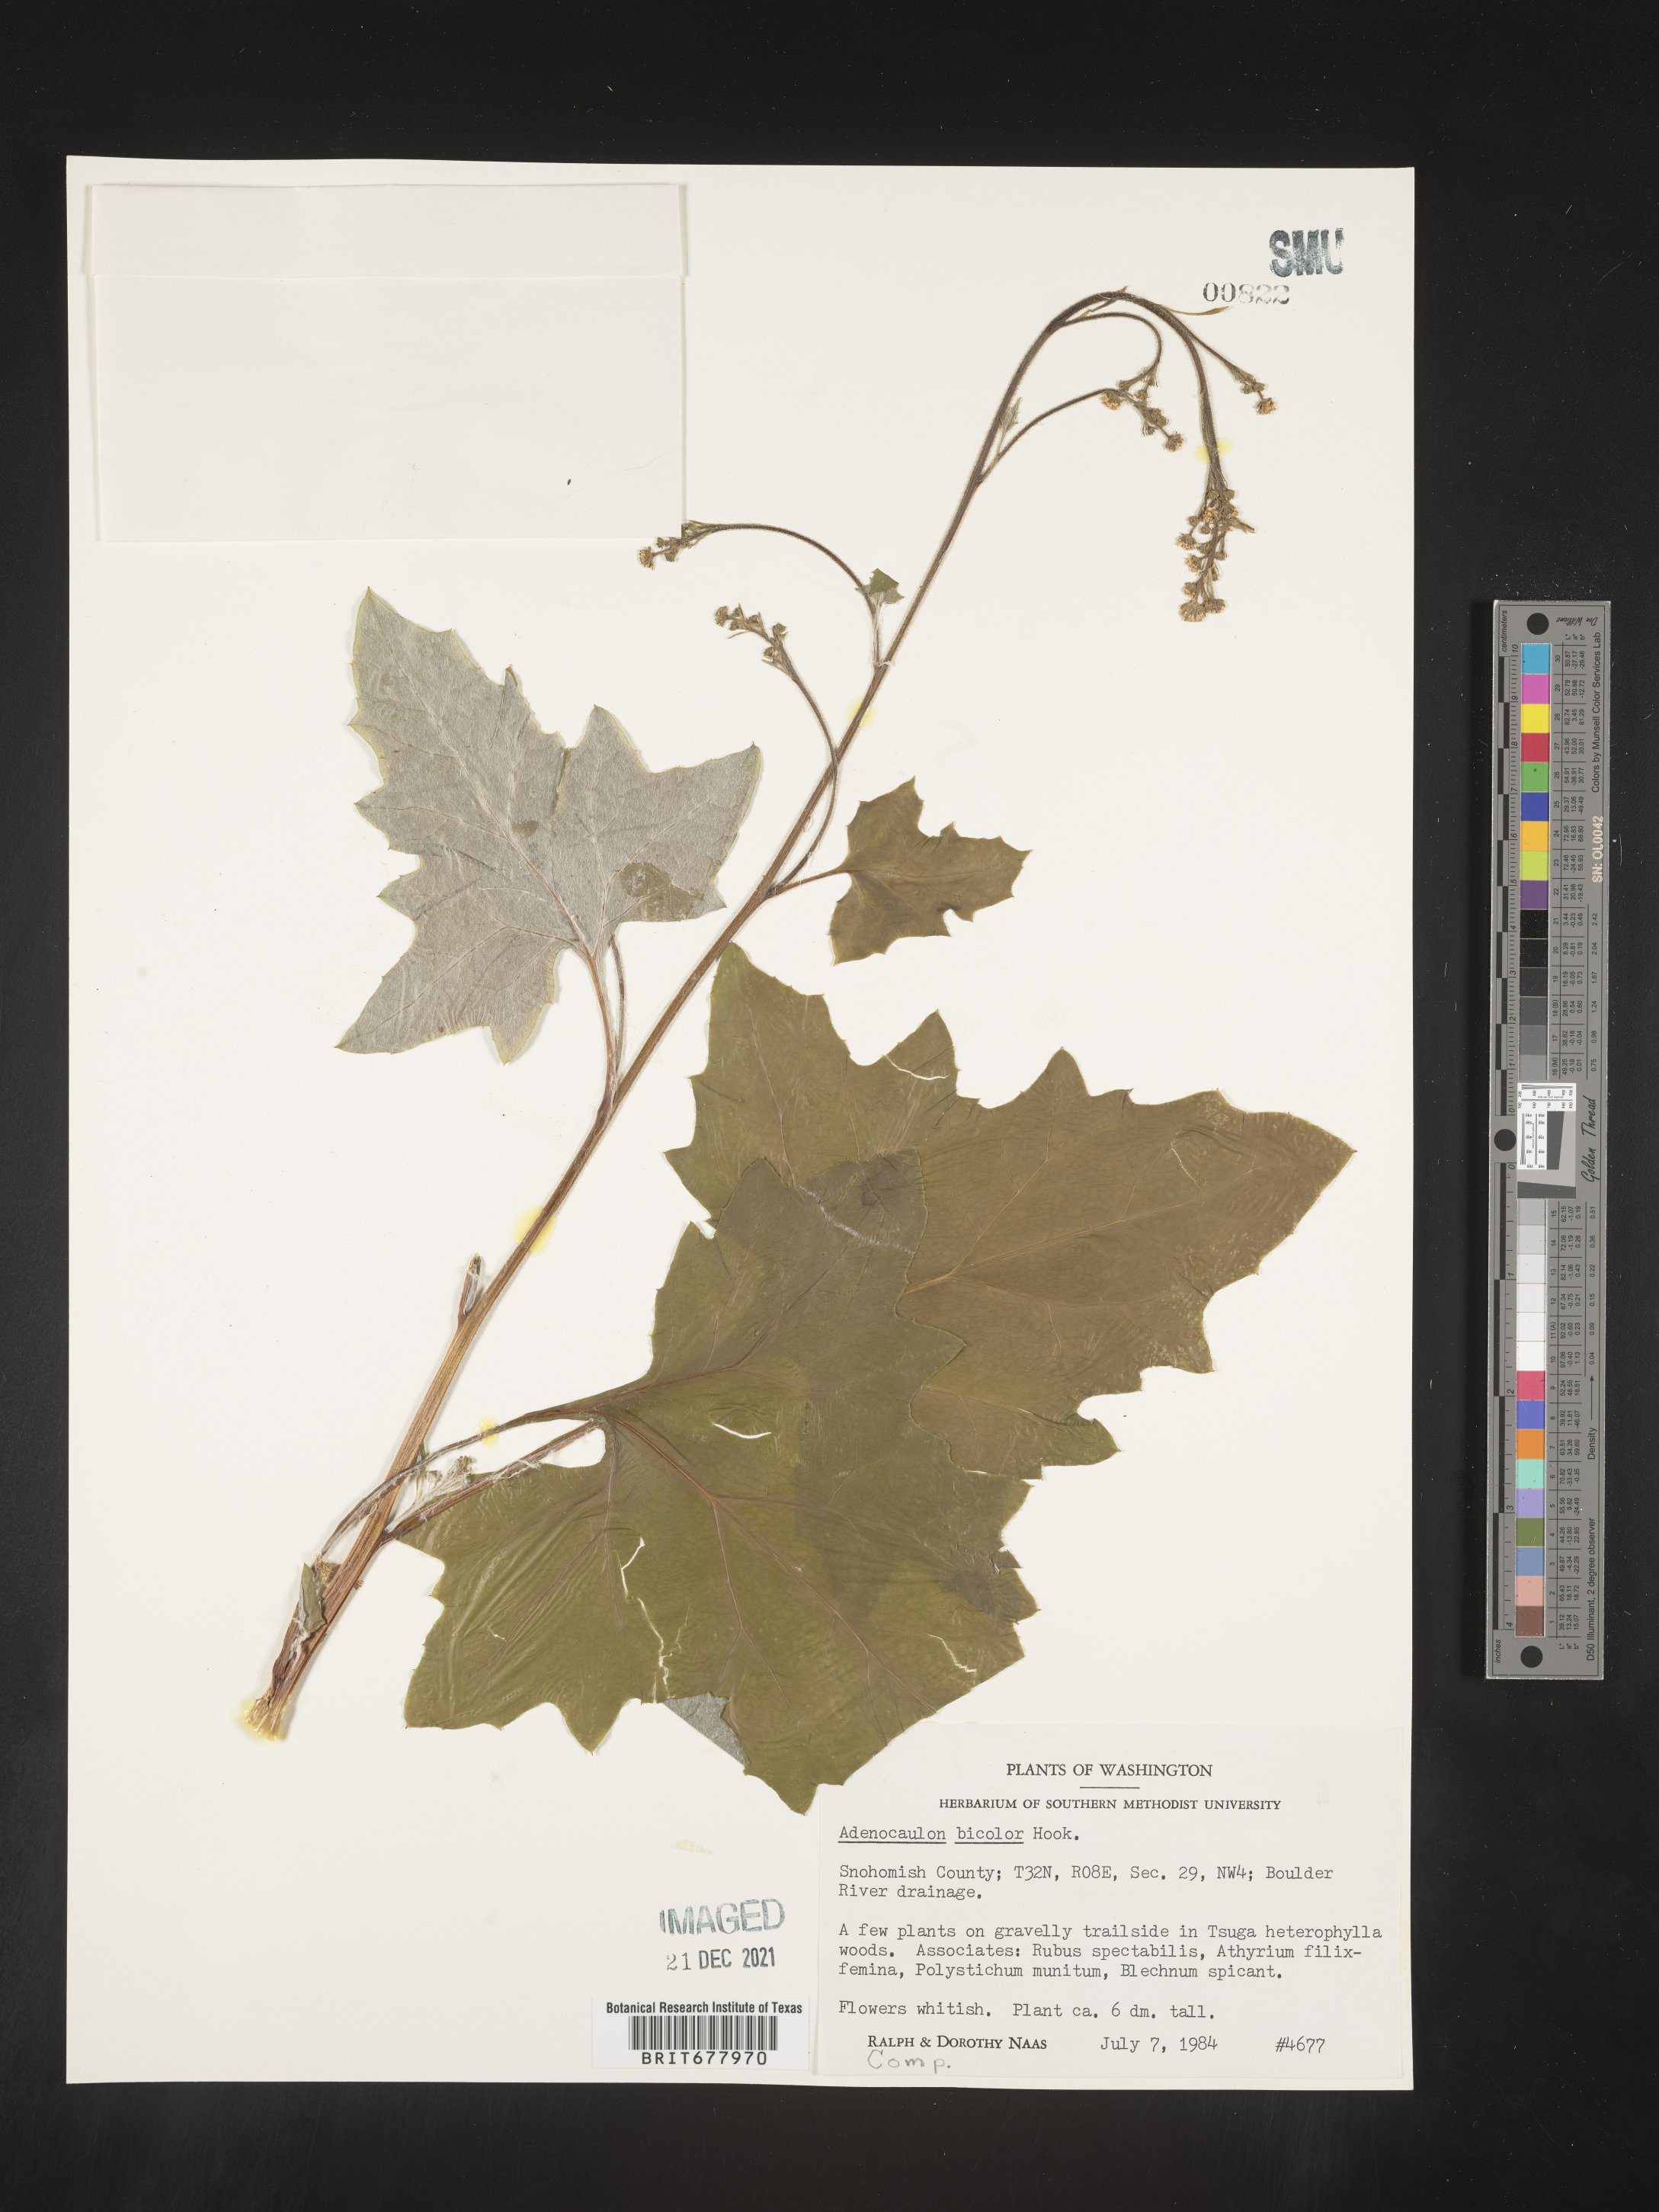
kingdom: Plantae
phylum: Tracheophyta
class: Magnoliopsida
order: Asterales
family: Asteraceae
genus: Adenocaulon
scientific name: Adenocaulon
